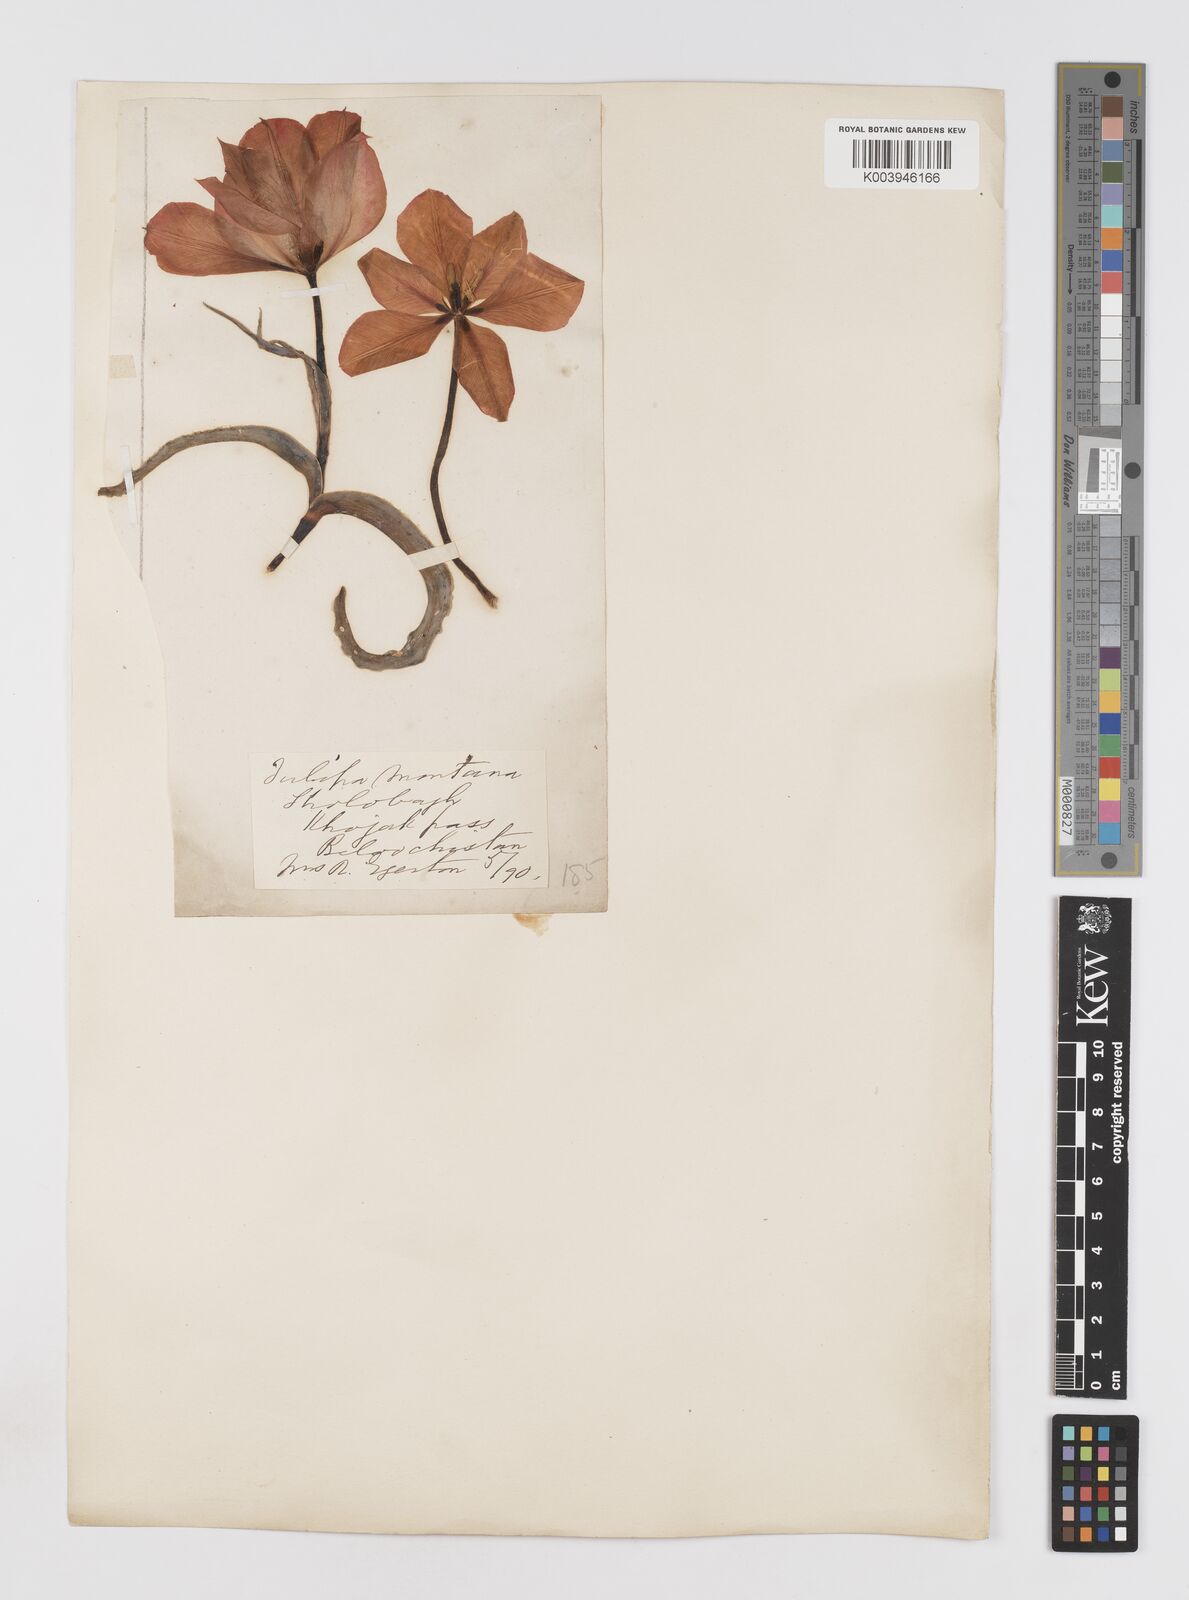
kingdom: Plantae
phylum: Tracheophyta
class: Liliopsida
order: Liliales
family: Liliaceae
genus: Tulipa
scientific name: Tulipa borszczowii
